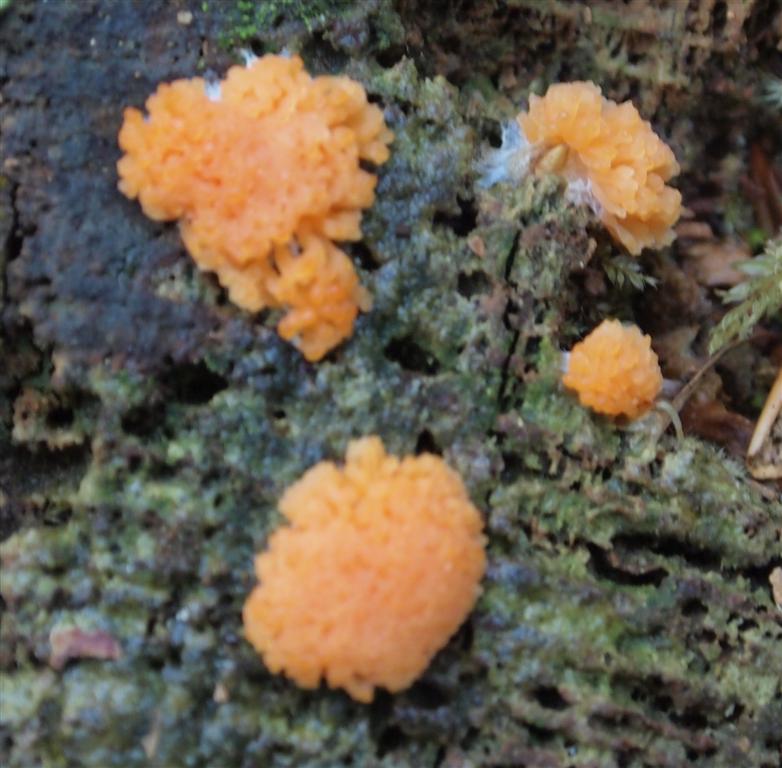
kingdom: Protozoa
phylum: Mycetozoa
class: Myxomycetes
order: Cribrariales
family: Tubiferaceae
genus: Tubifera
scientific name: Tubifera ferruginosa
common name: kanel-støvrør
